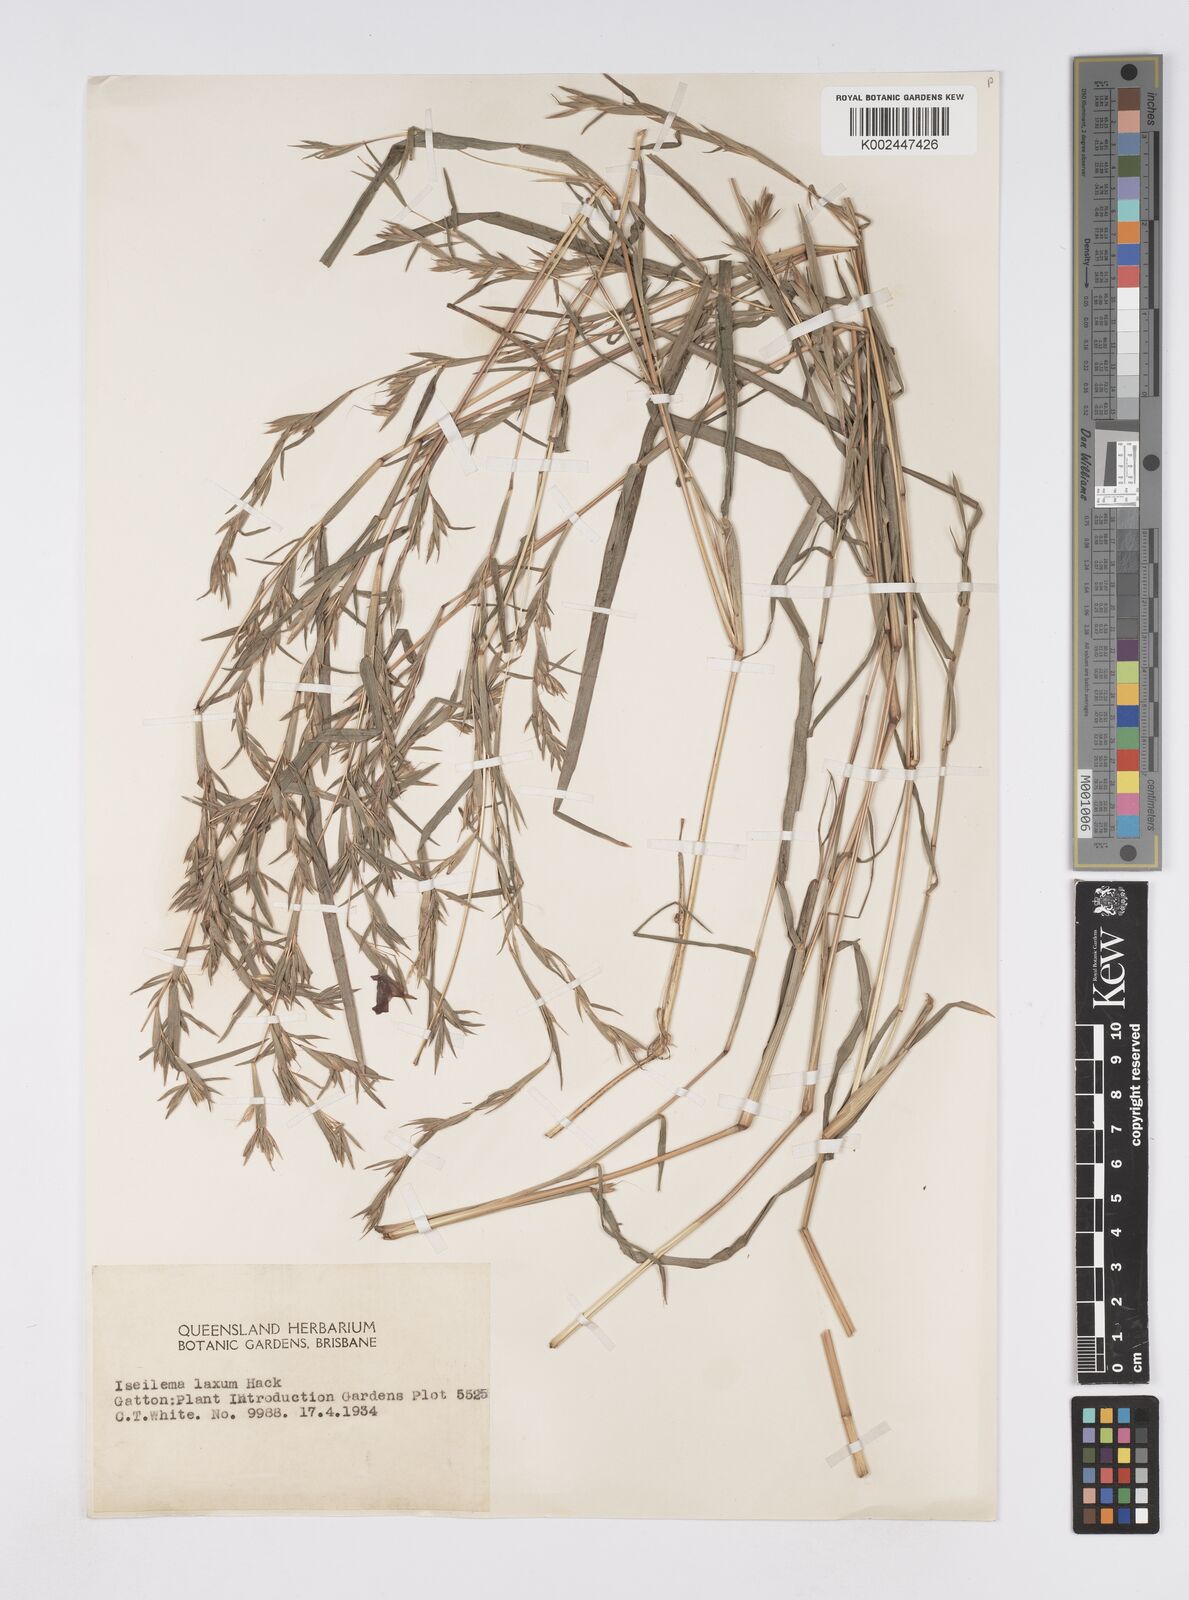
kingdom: Plantae
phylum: Tracheophyta
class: Liliopsida
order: Poales
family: Poaceae
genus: Iseilema
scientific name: Iseilema prostratum
